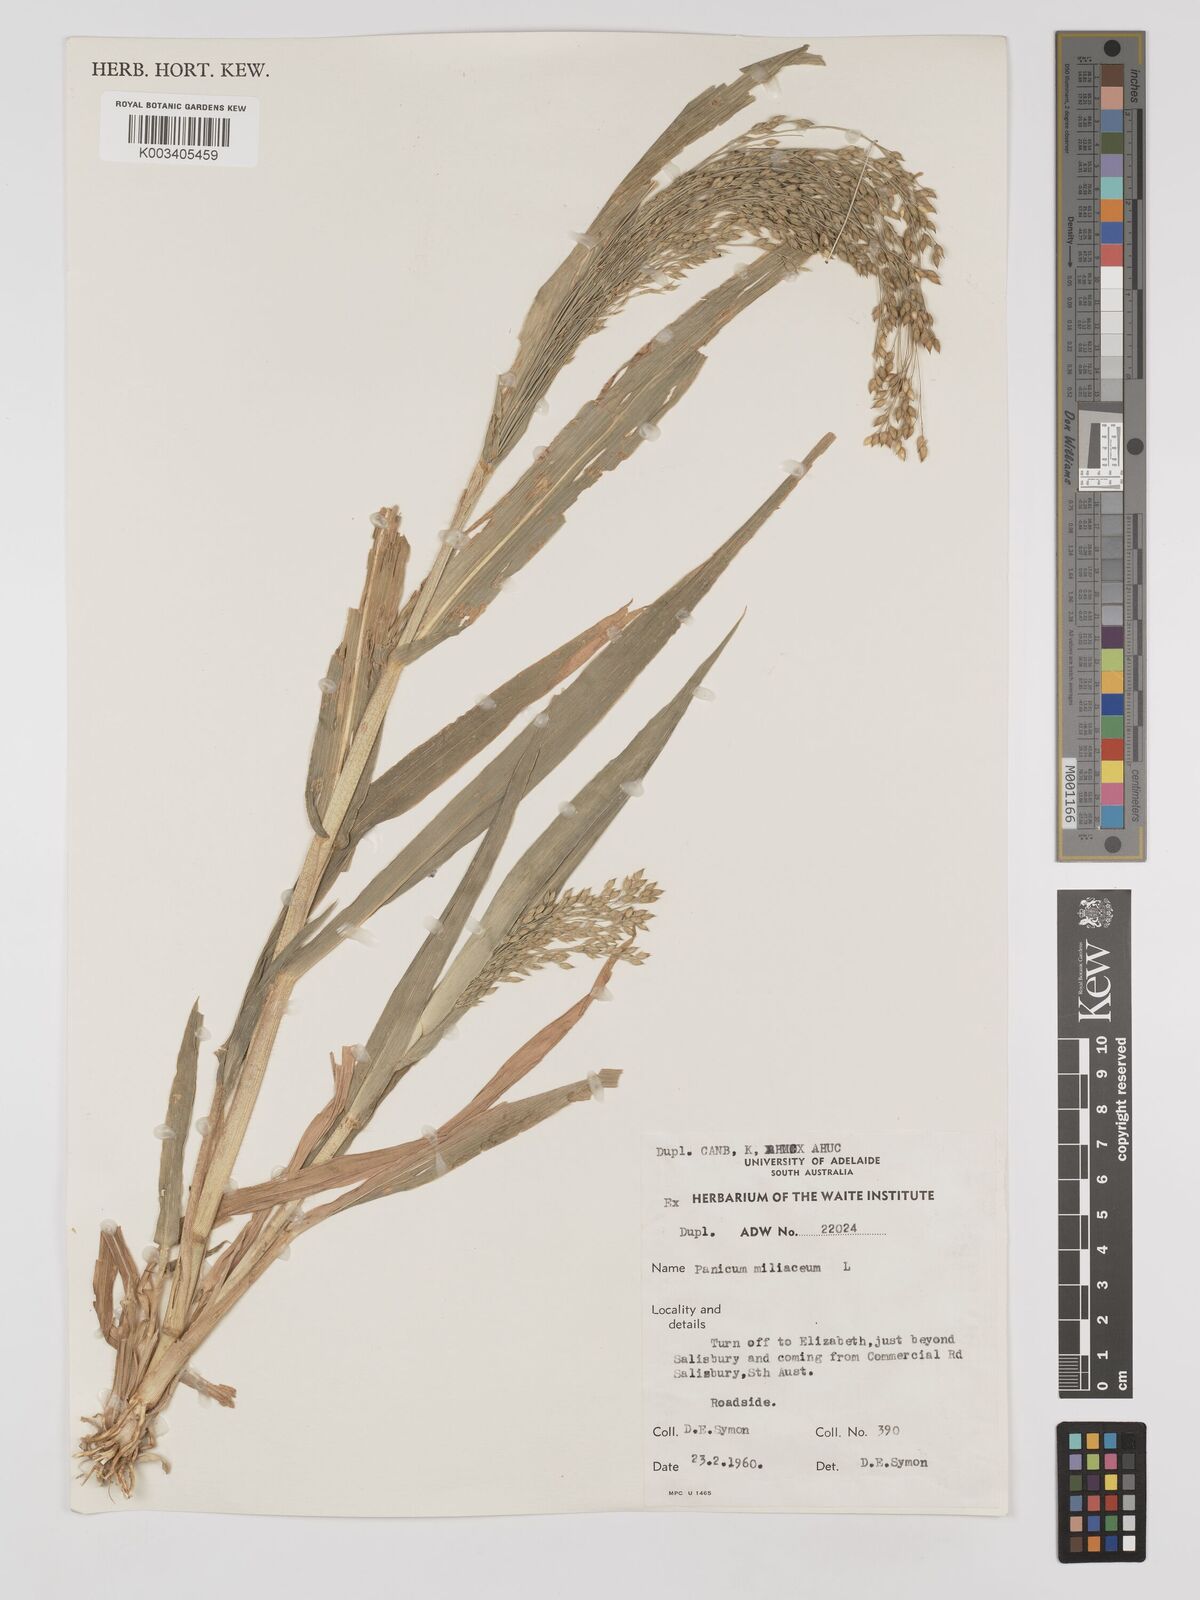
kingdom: Plantae
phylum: Tracheophyta
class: Liliopsida
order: Poales
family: Poaceae
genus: Panicum
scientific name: Panicum miliaceum
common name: Common millet
